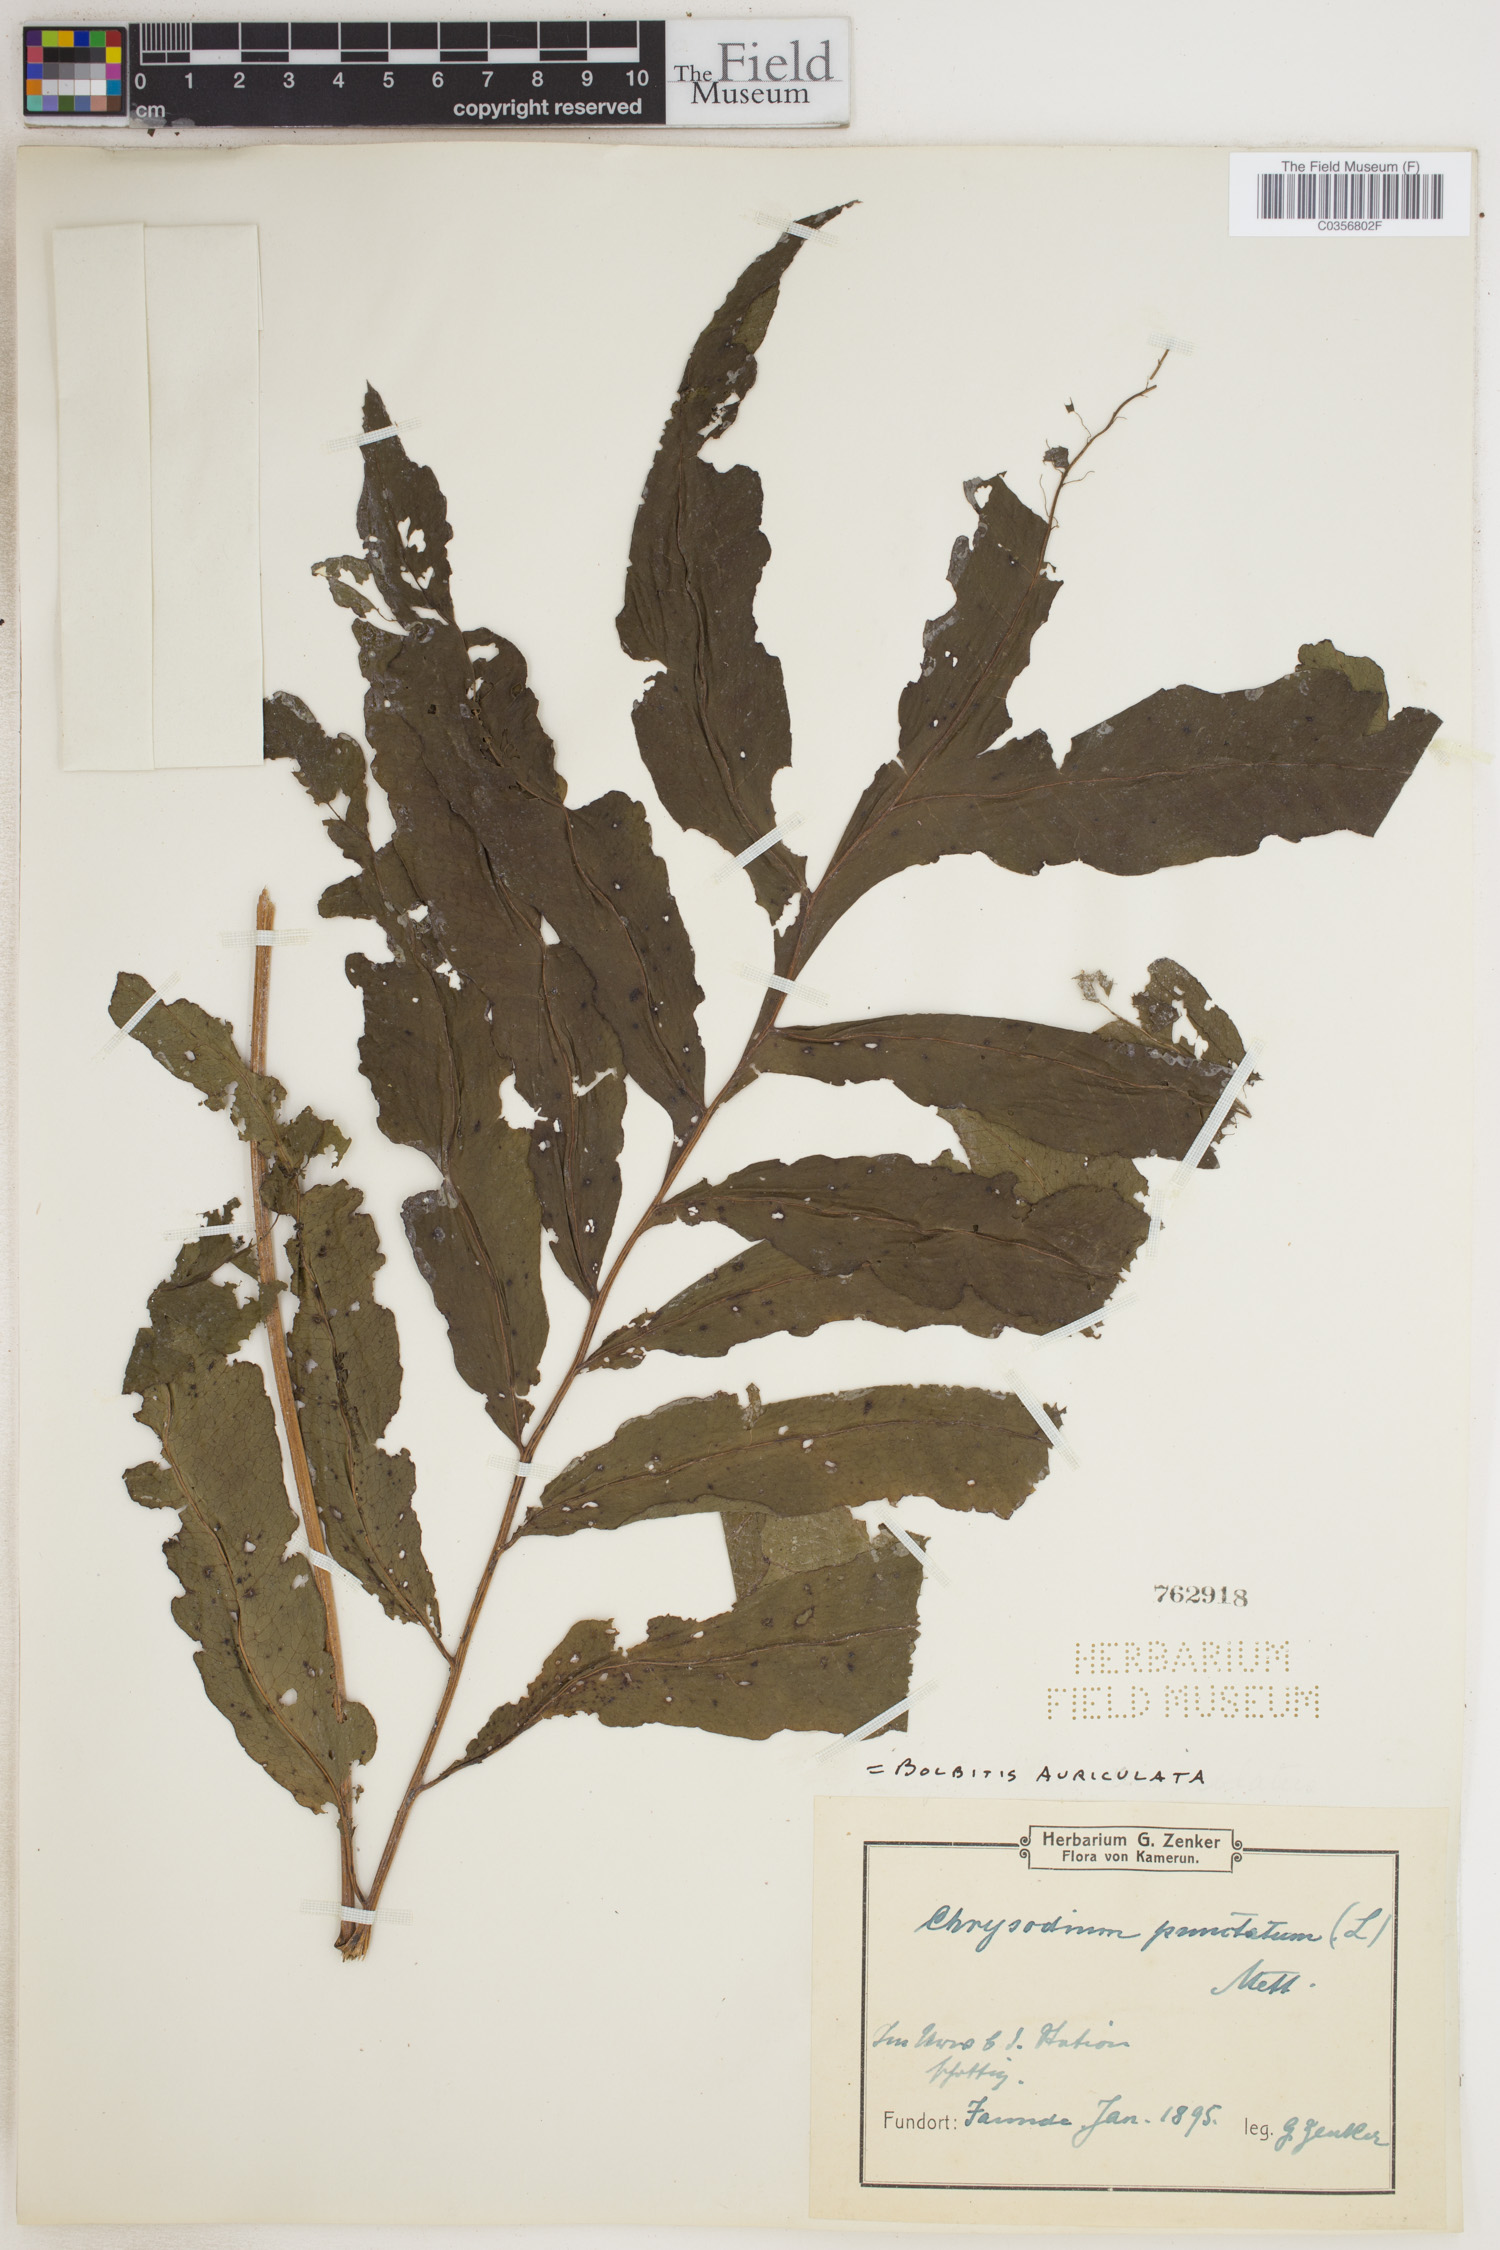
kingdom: Plantae
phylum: Tracheophyta
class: Polypodiopsida
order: Polypodiales
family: Dryopteridaceae
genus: Bolbitis
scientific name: Bolbitis auriculata
